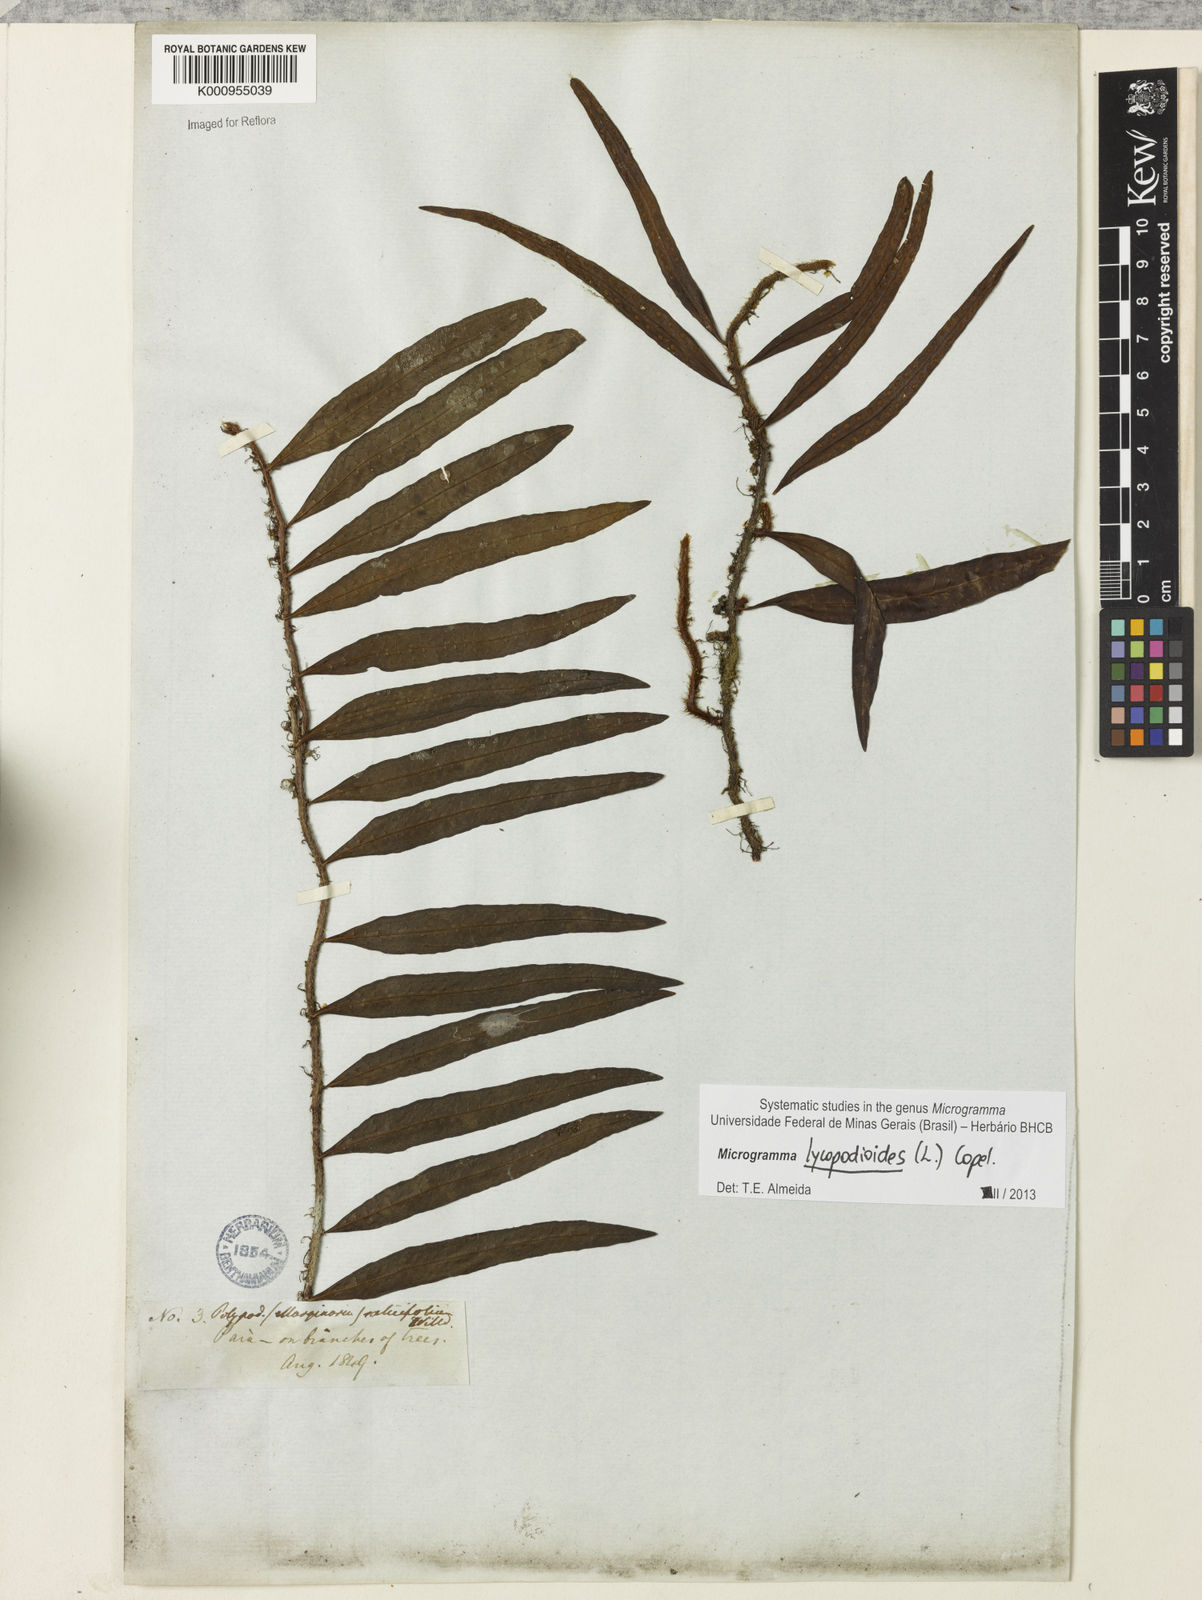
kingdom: Plantae
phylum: Tracheophyta
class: Polypodiopsida
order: Polypodiales
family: Polypodiaceae
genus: Microgramma
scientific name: Microgramma lycopodioides
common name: Bastard catclaw
